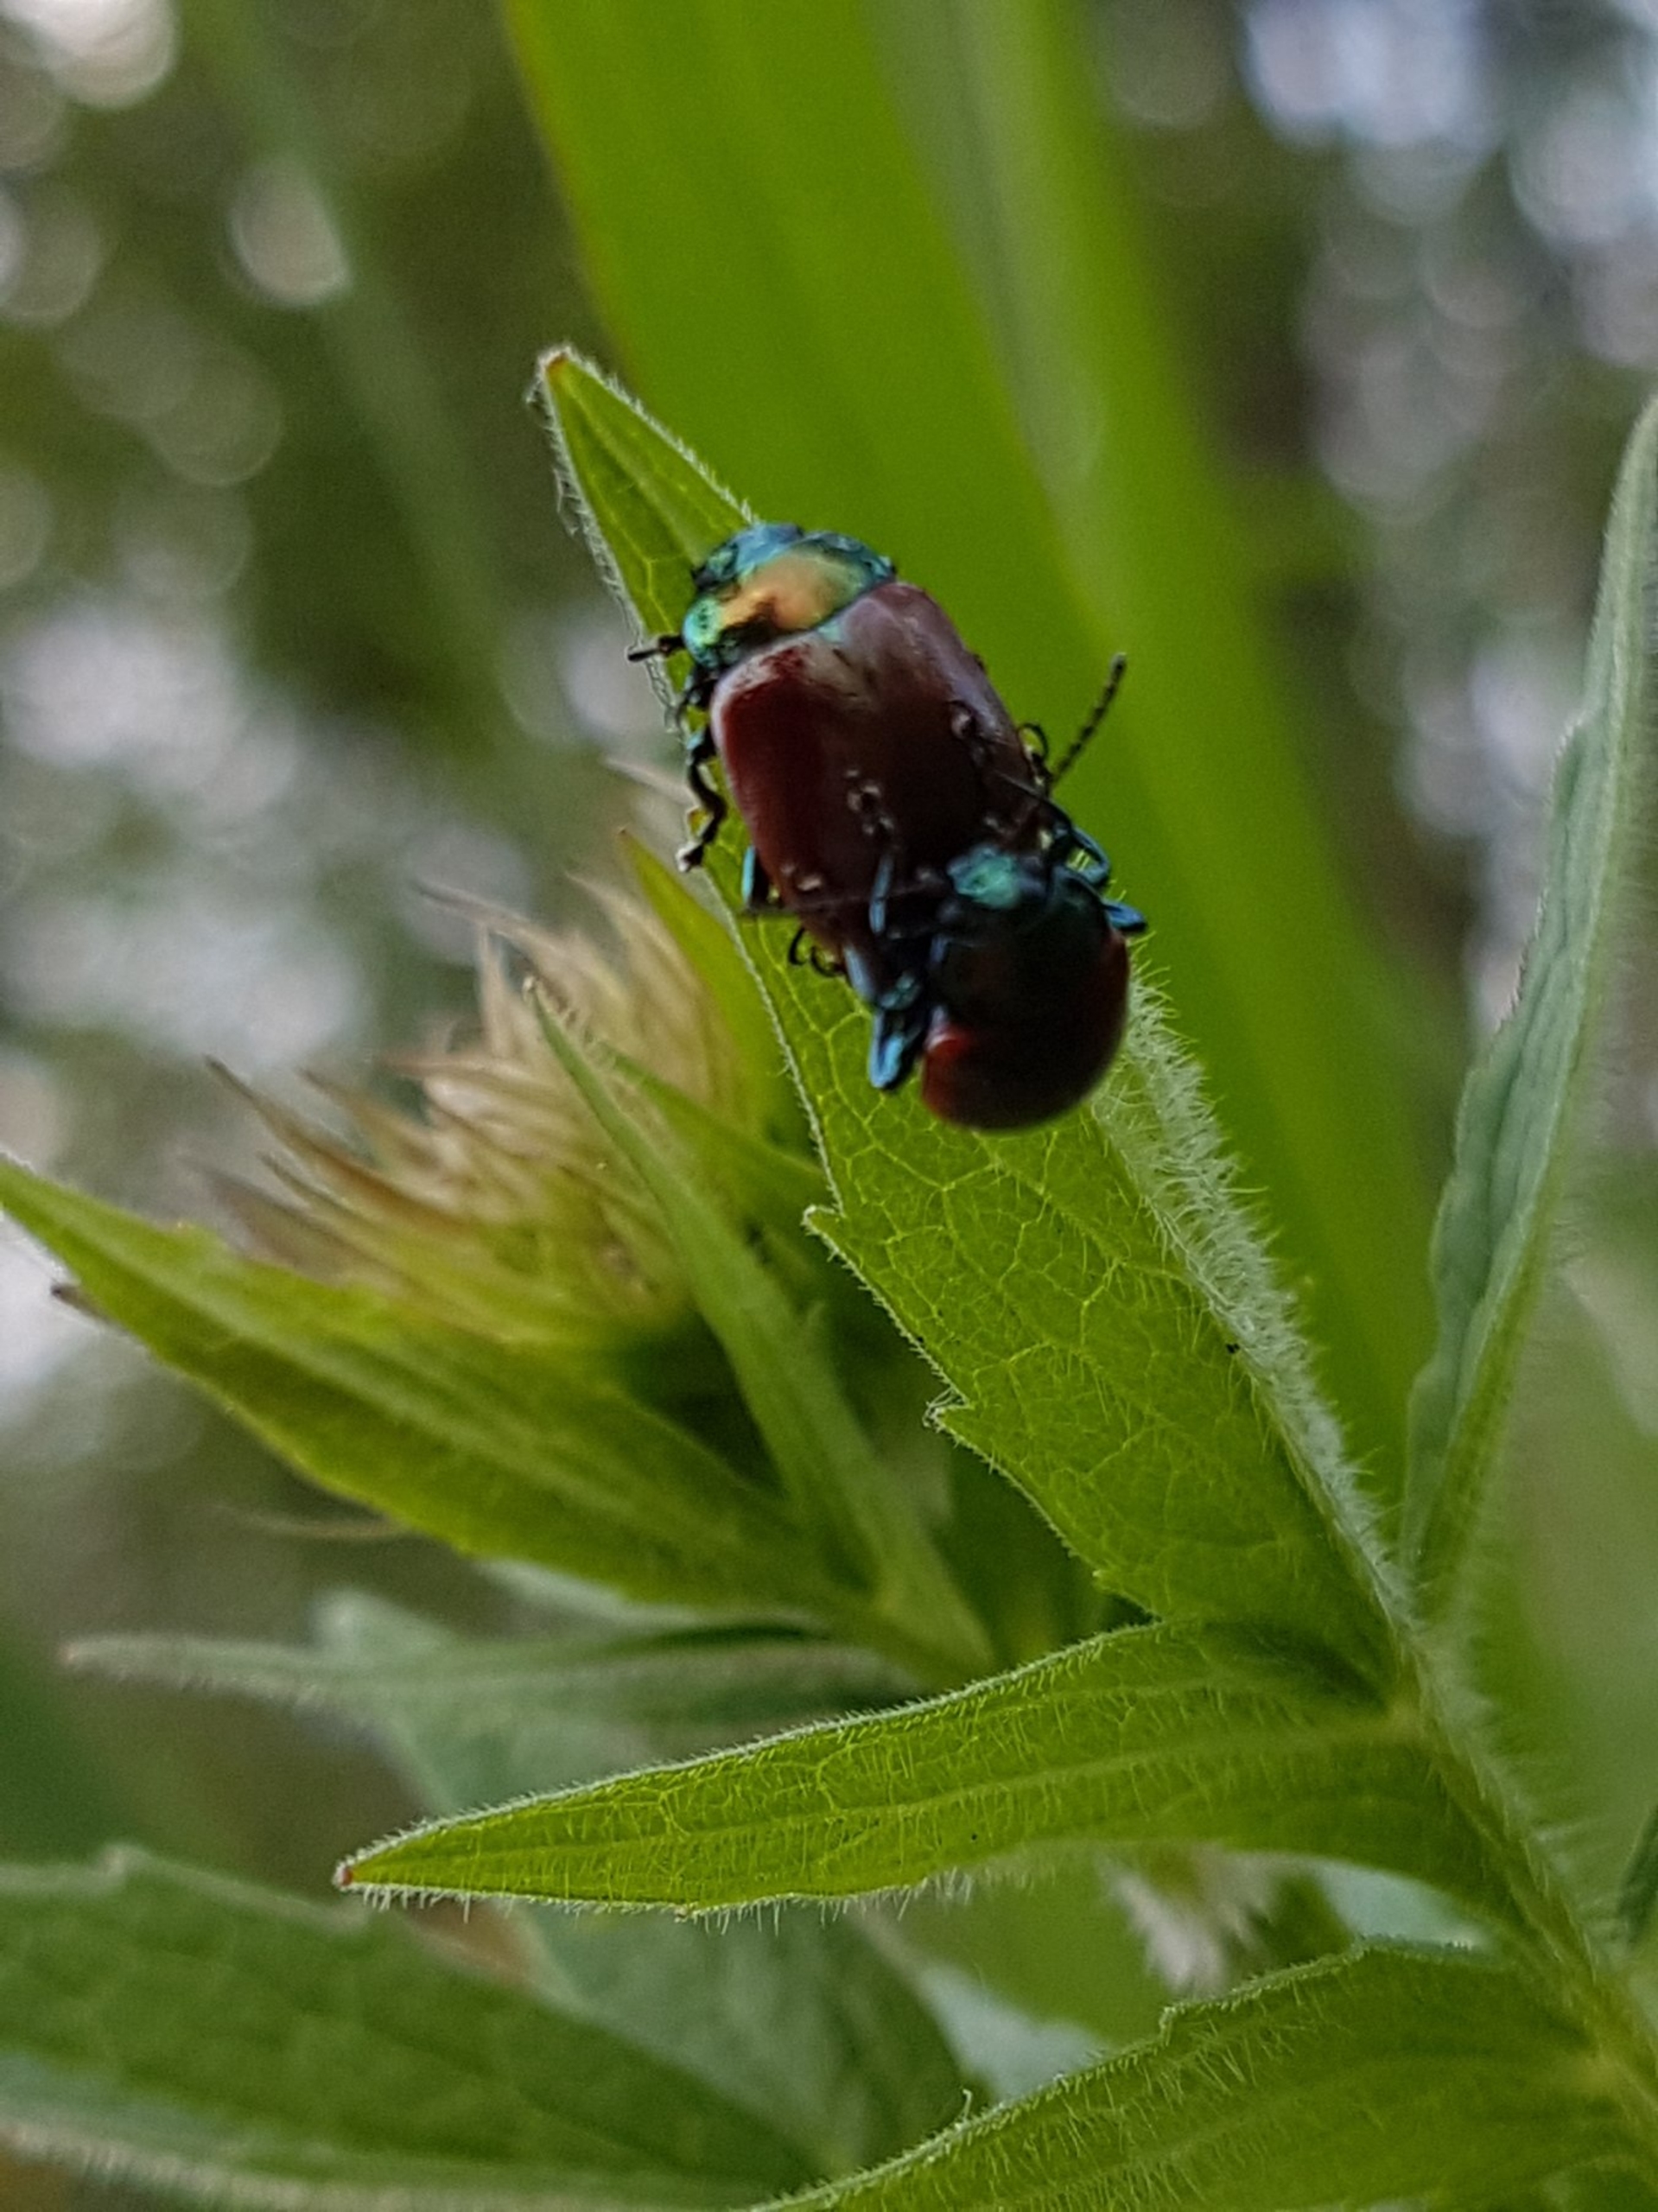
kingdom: Animalia
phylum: Arthropoda
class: Insecta
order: Coleoptera
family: Chrysomelidae
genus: Chrysomela
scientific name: Chrysomela polita
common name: Forskelligfarvet guldbille
